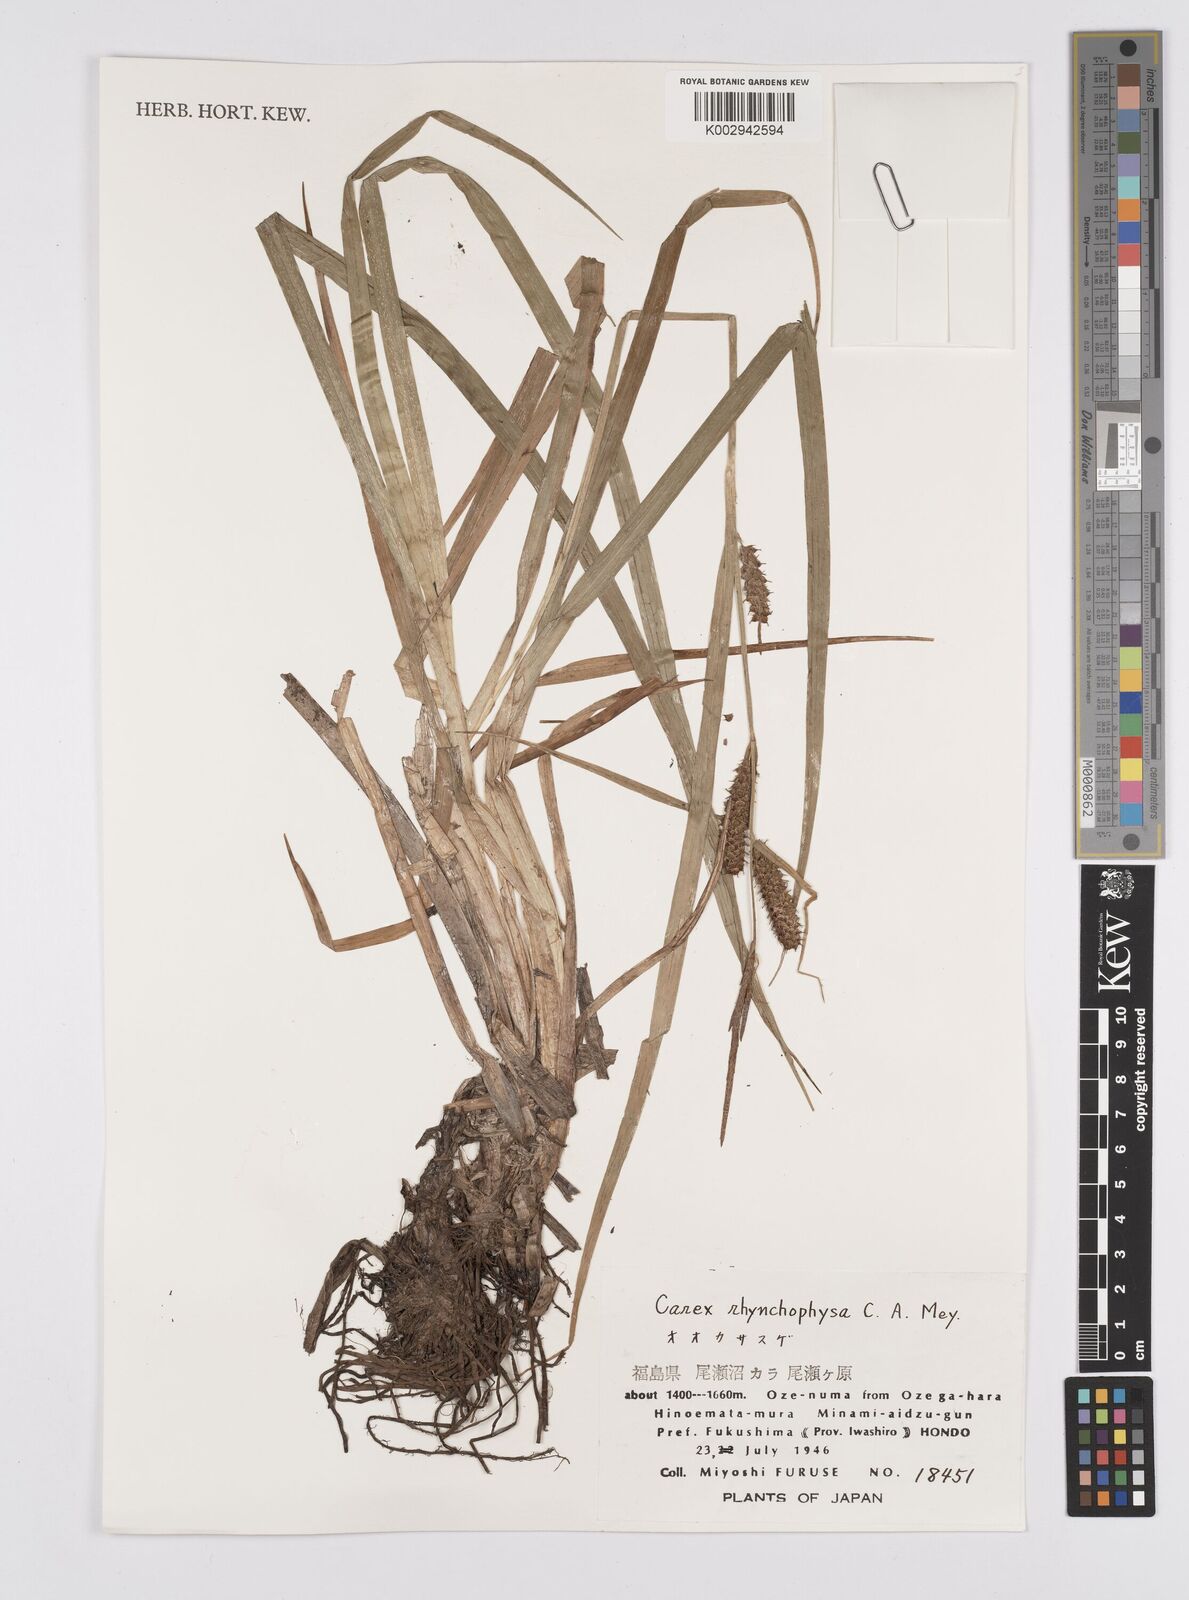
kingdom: Plantae
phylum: Tracheophyta
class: Liliopsida
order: Poales
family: Cyperaceae
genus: Carex
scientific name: Carex utriculata
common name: Beaked sedge
